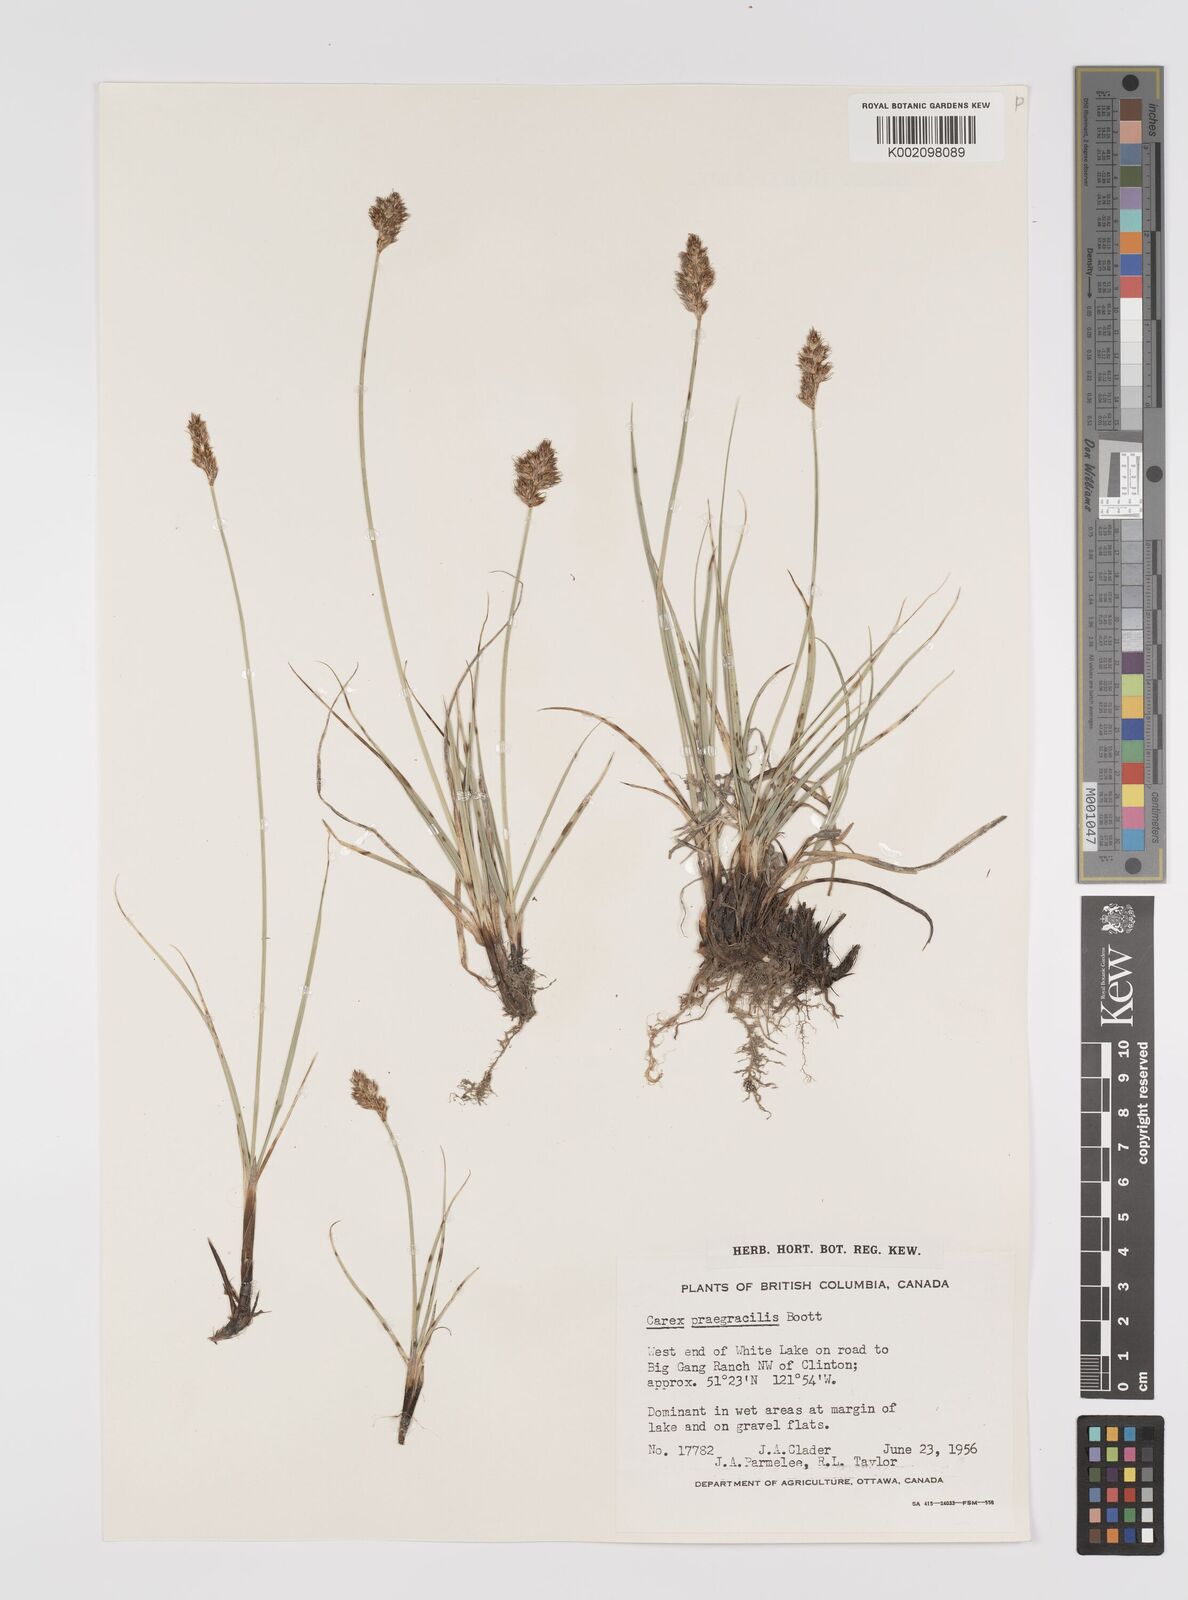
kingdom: Plantae
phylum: Tracheophyta
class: Liliopsida
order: Poales
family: Cyperaceae
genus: Carex
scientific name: Carex praegracilis
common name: Black creeper sedge
